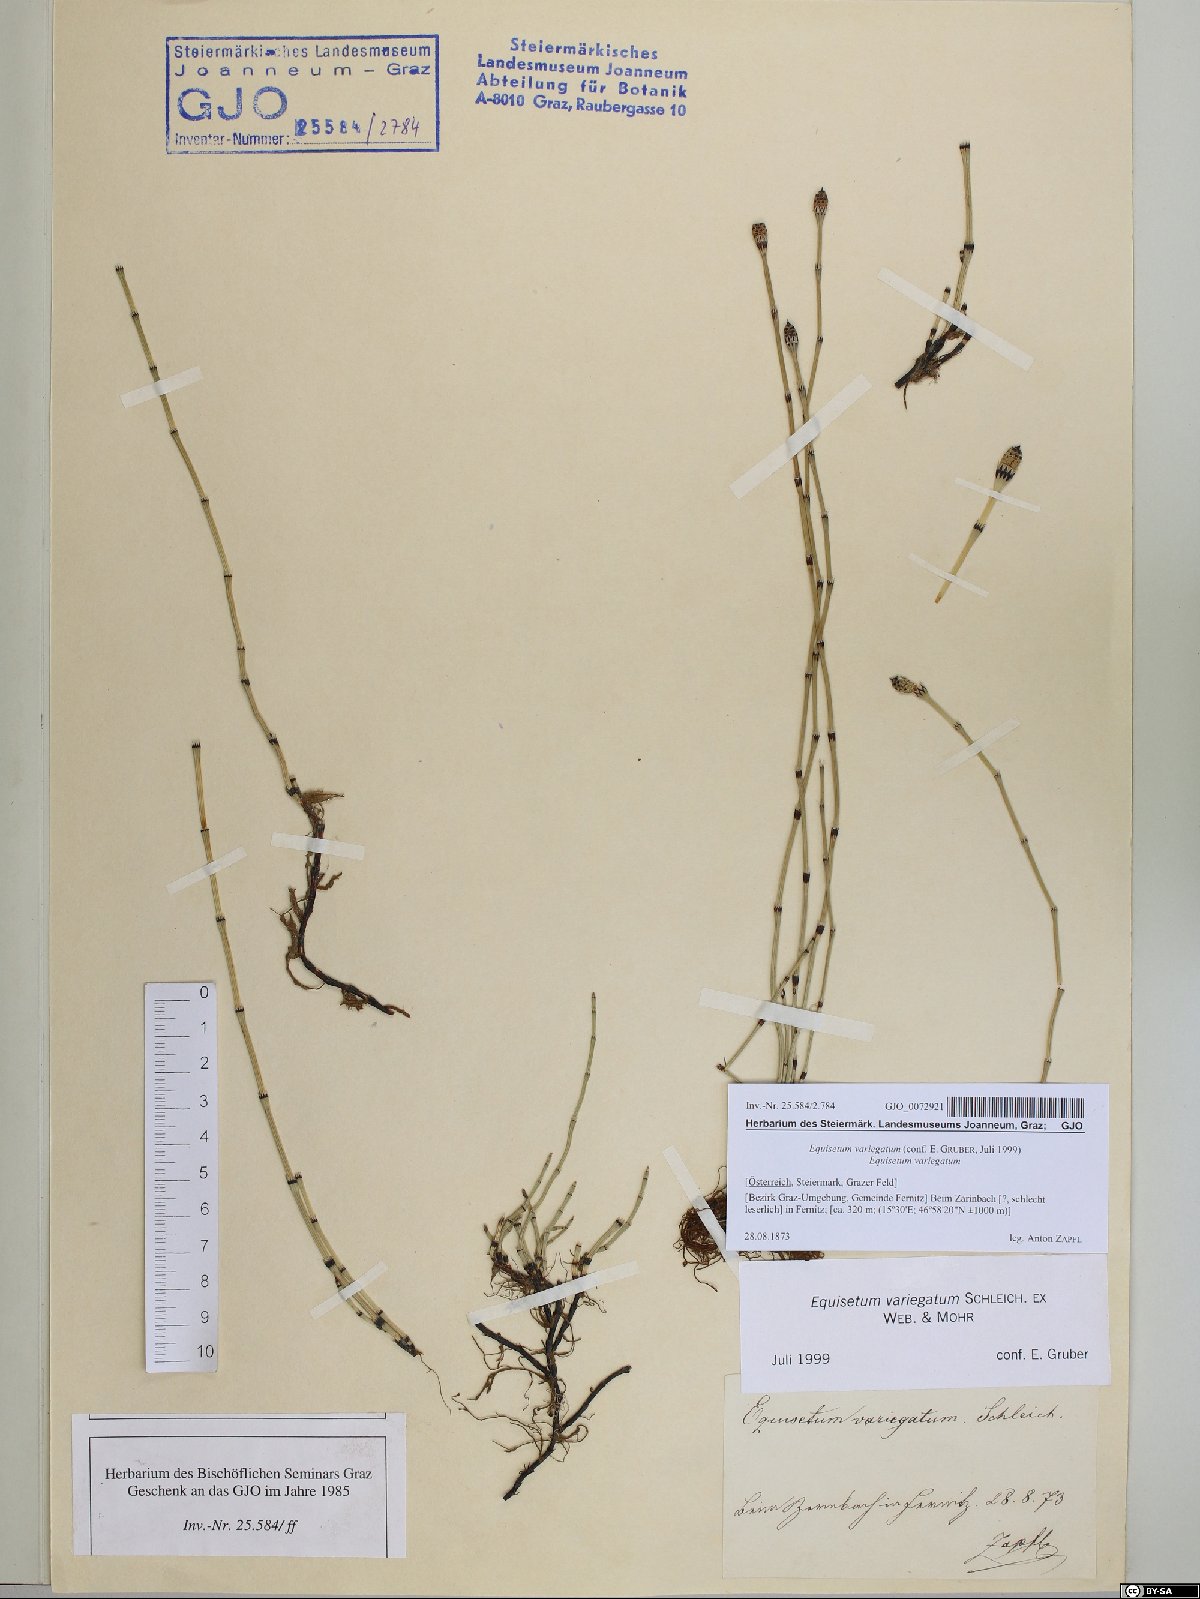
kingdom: Plantae
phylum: Tracheophyta
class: Polypodiopsida
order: Equisetales
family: Equisetaceae
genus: Equisetum
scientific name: Equisetum variegatum
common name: Variegated horsetail
